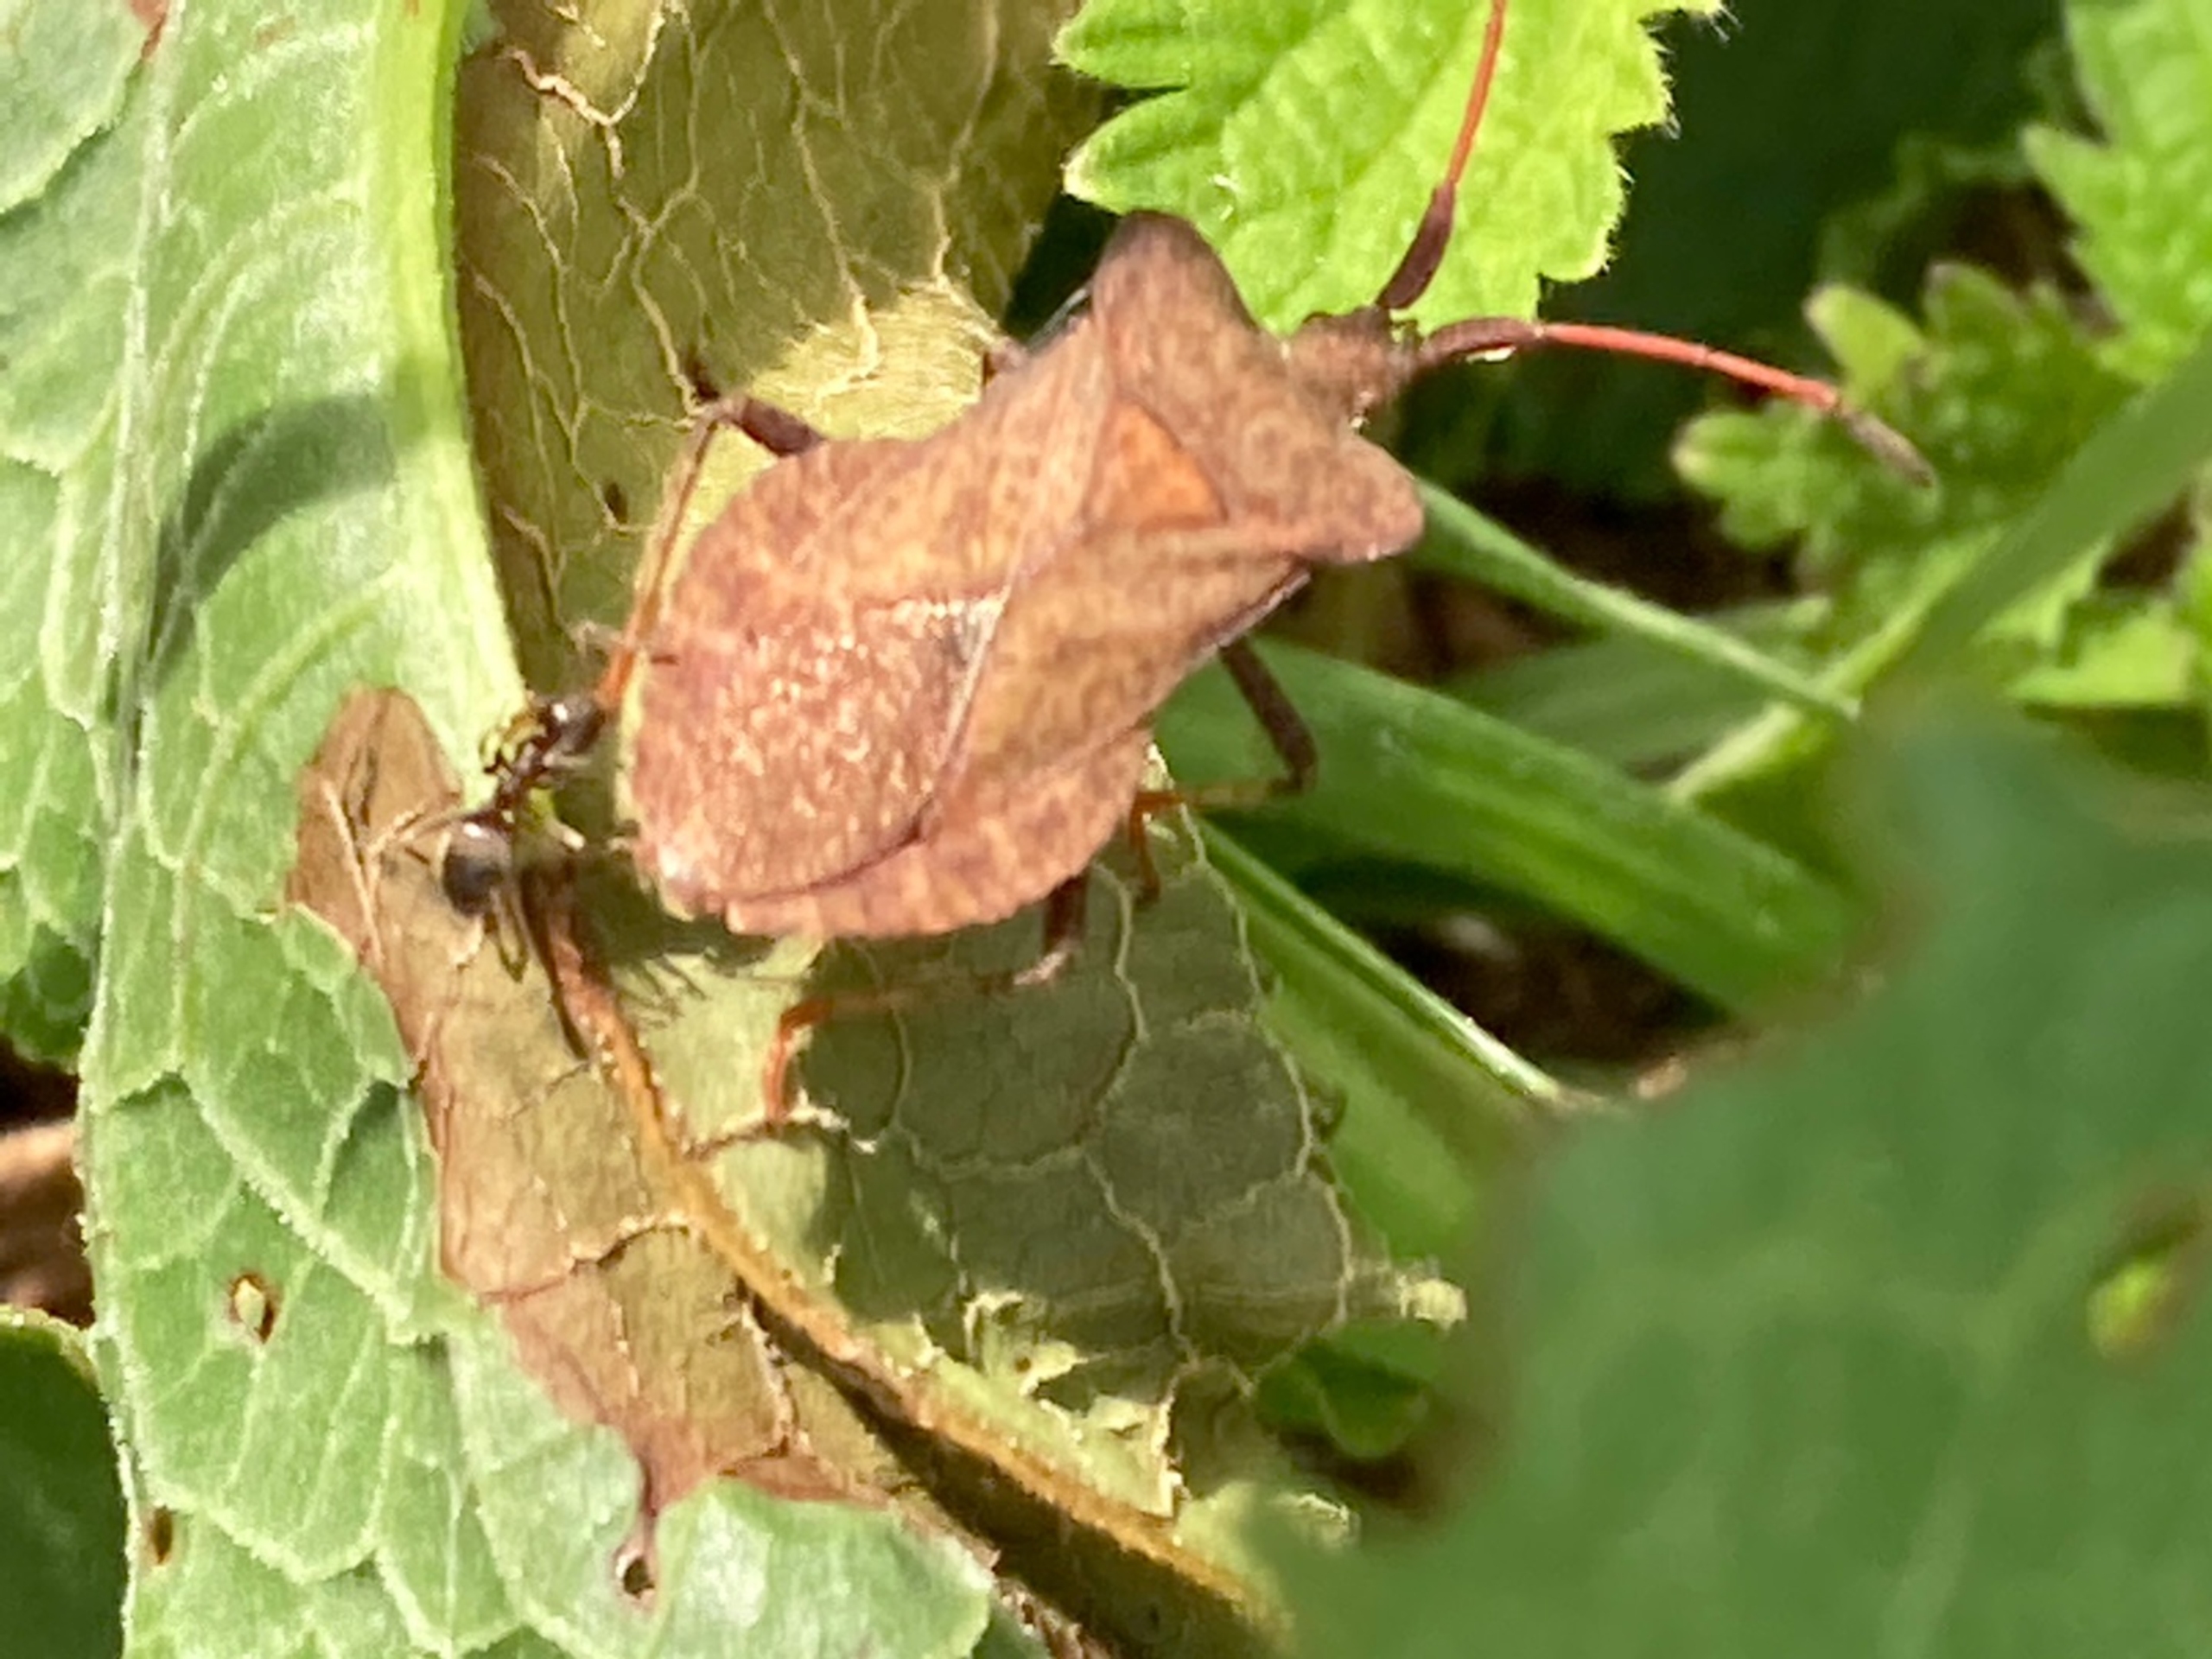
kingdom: Animalia
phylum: Arthropoda
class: Insecta
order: Hemiptera
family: Coreidae
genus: Coreus
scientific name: Coreus marginatus
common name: Skræppetæge
